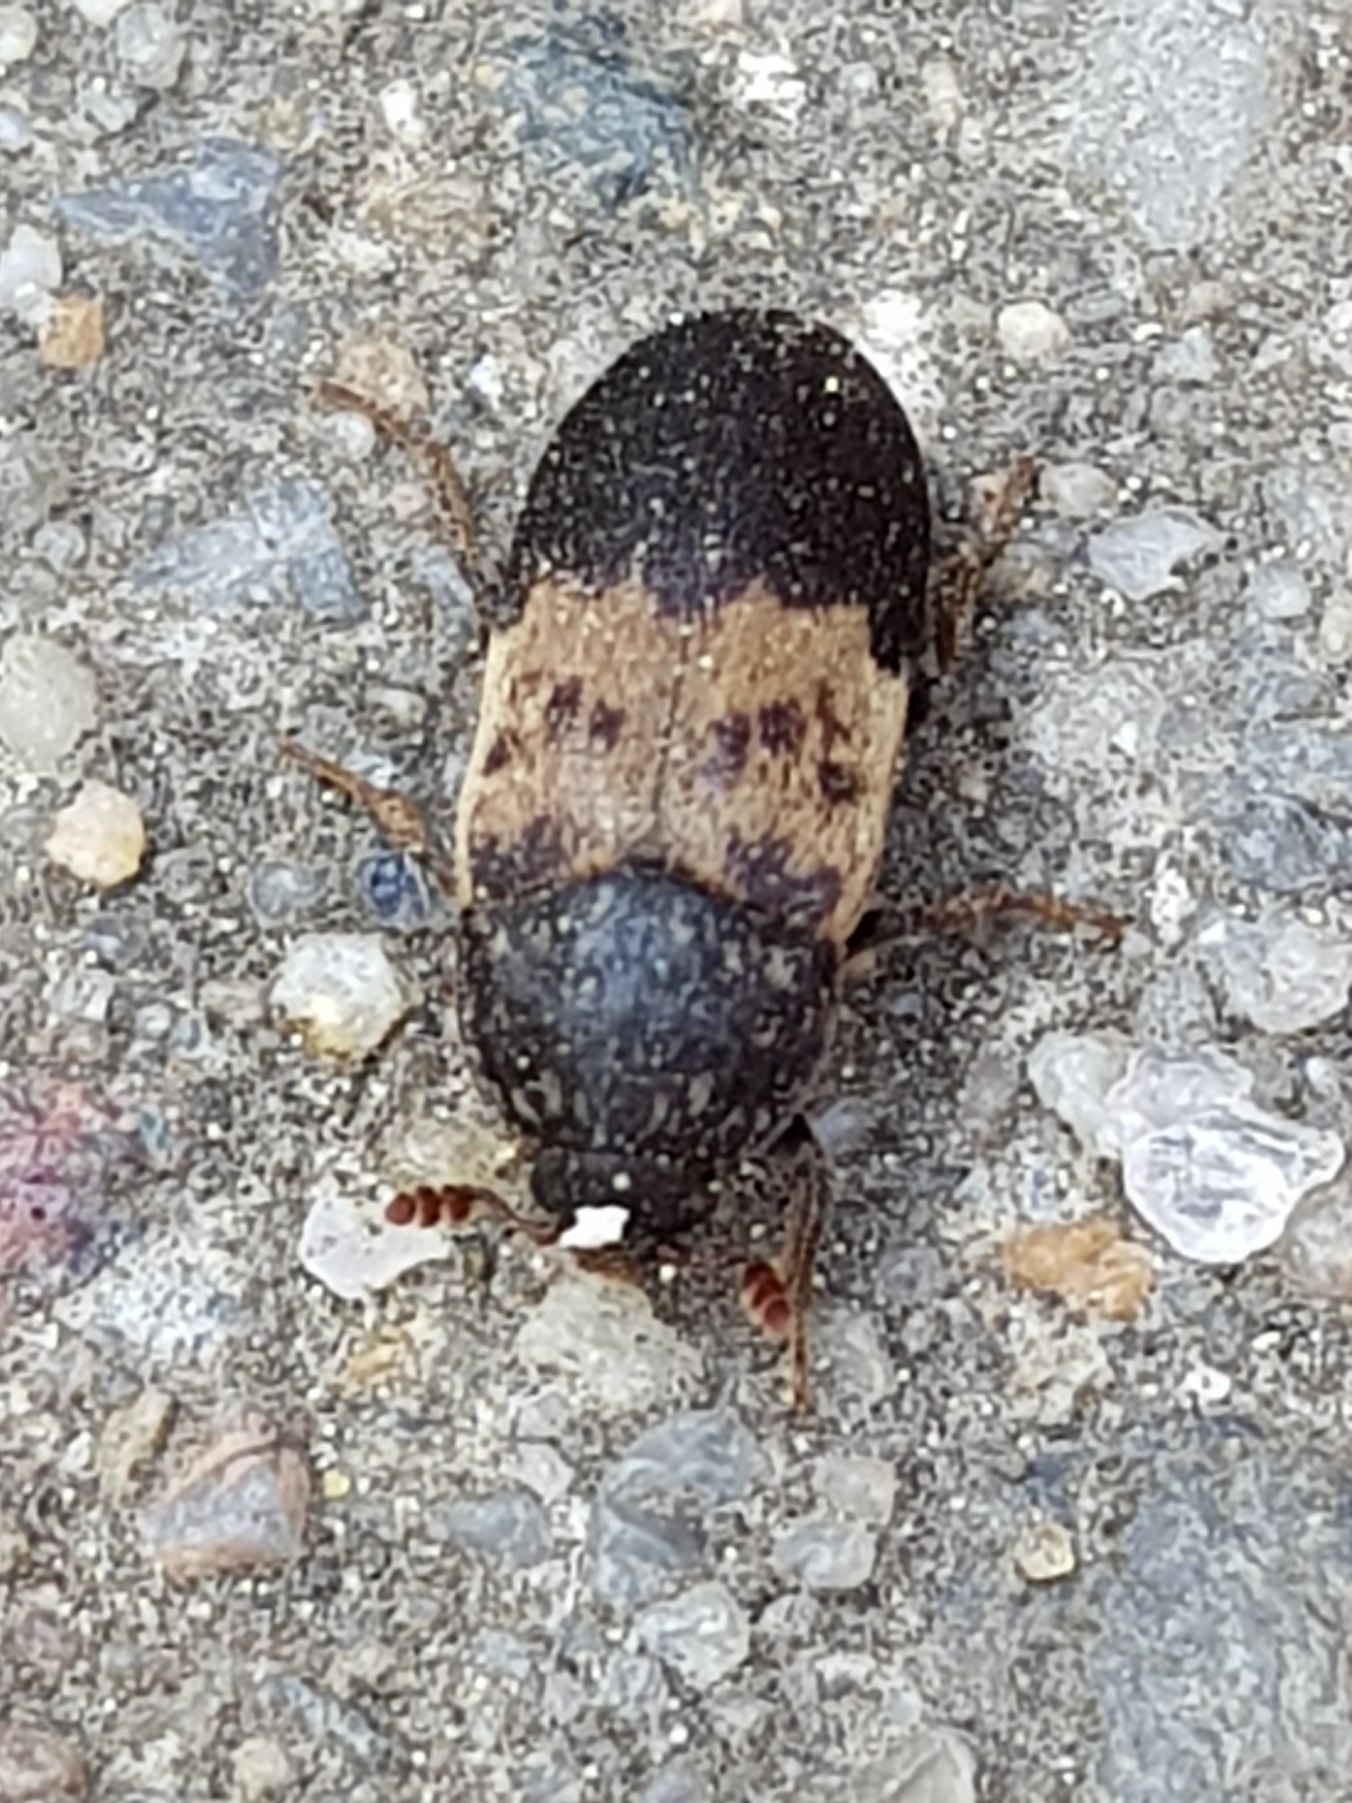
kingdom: Animalia
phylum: Arthropoda
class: Insecta
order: Coleoptera
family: Dermestidae
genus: Dermestes
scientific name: Dermestes lardarius
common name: Flæskeklanner
